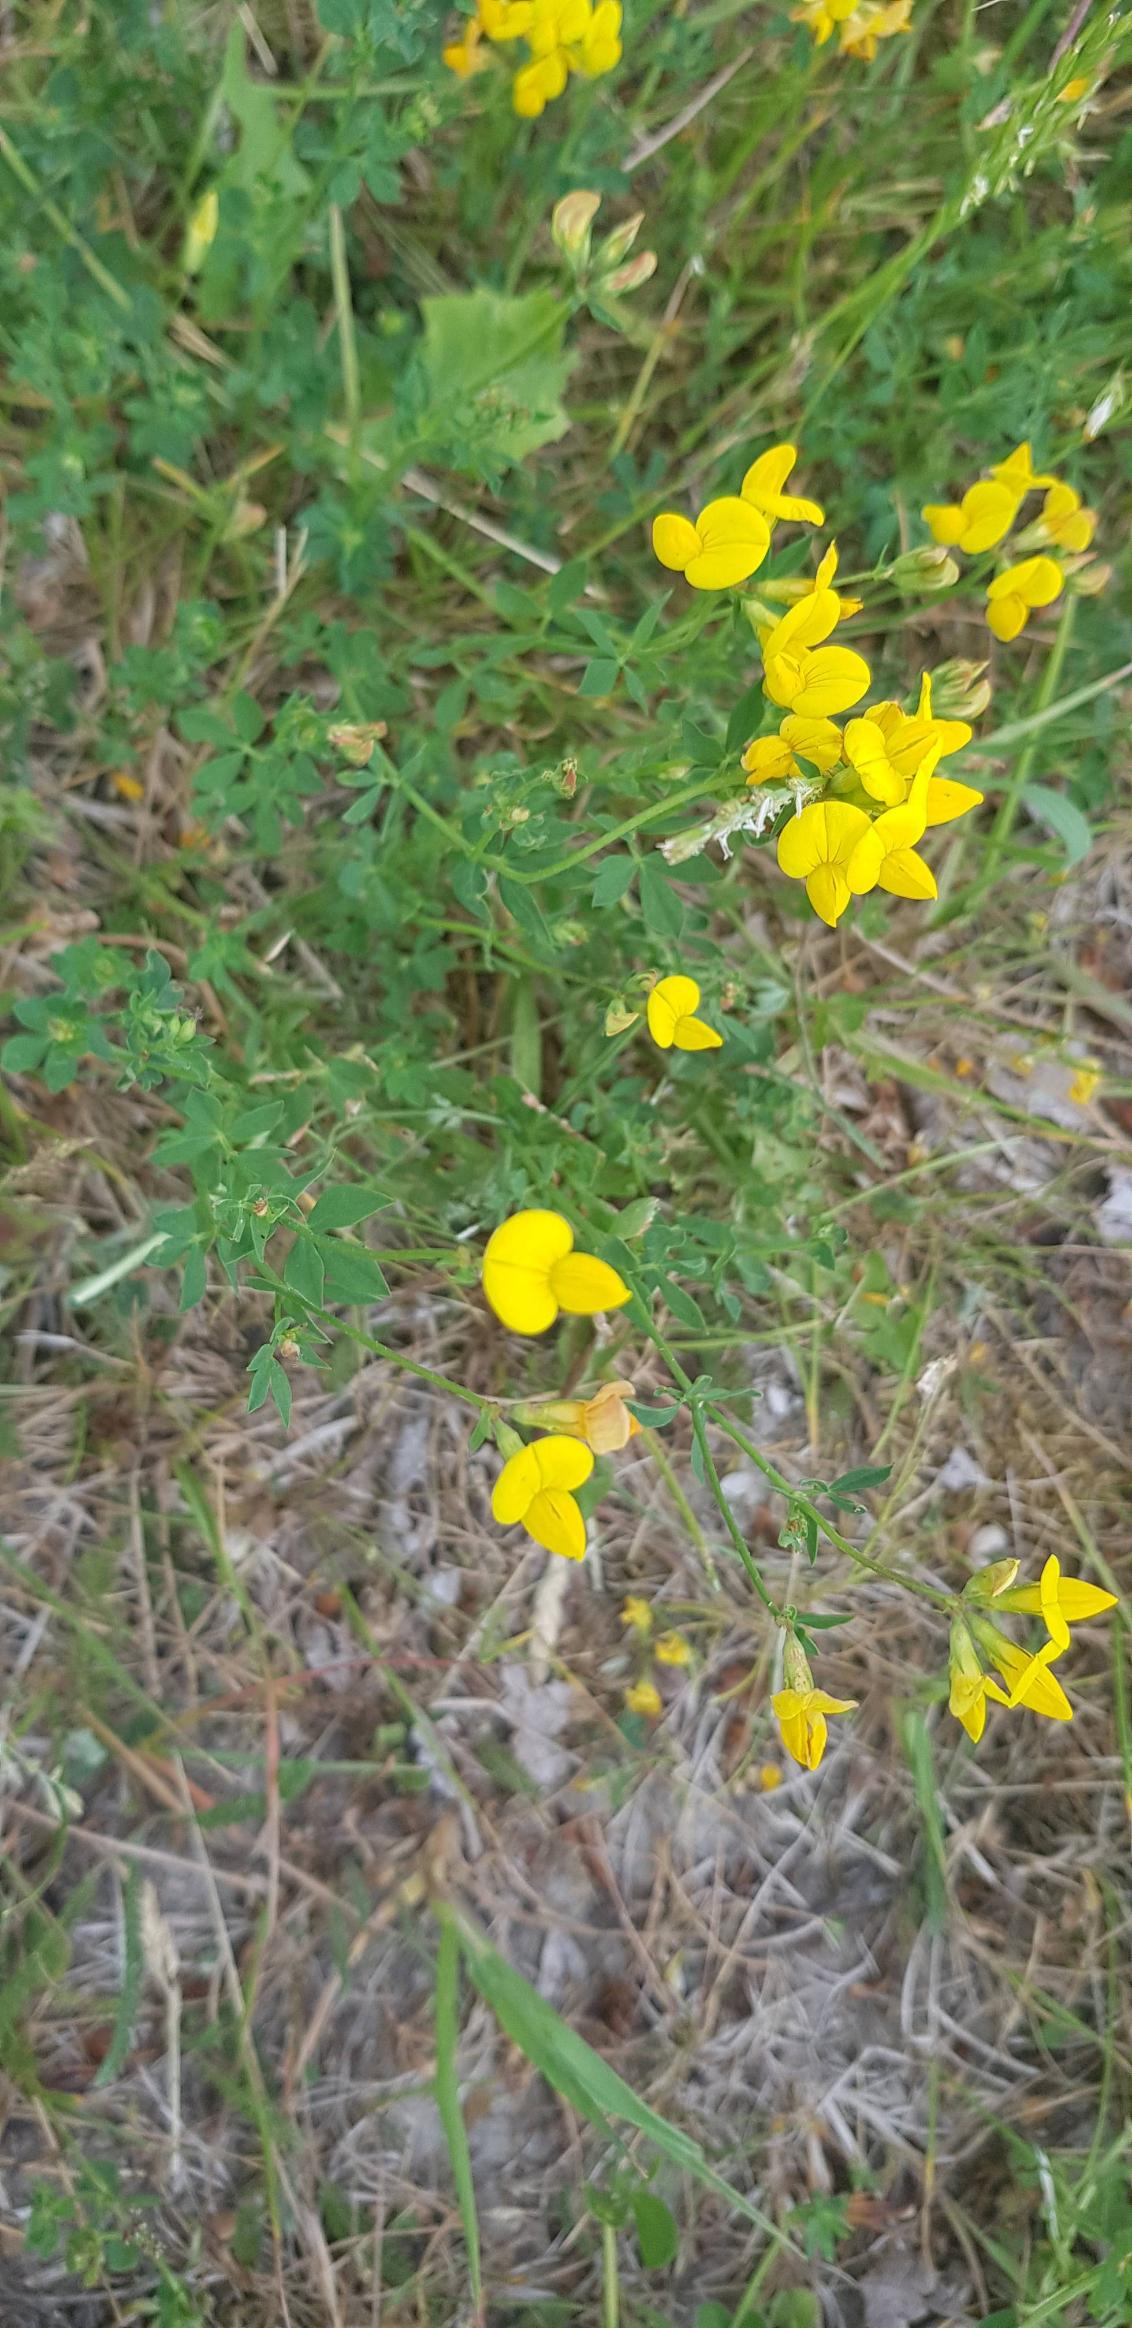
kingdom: Plantae
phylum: Tracheophyta
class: Magnoliopsida
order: Fabales
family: Fabaceae
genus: Lotus
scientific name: Lotus corniculatus
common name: Almindelig kællingetand
